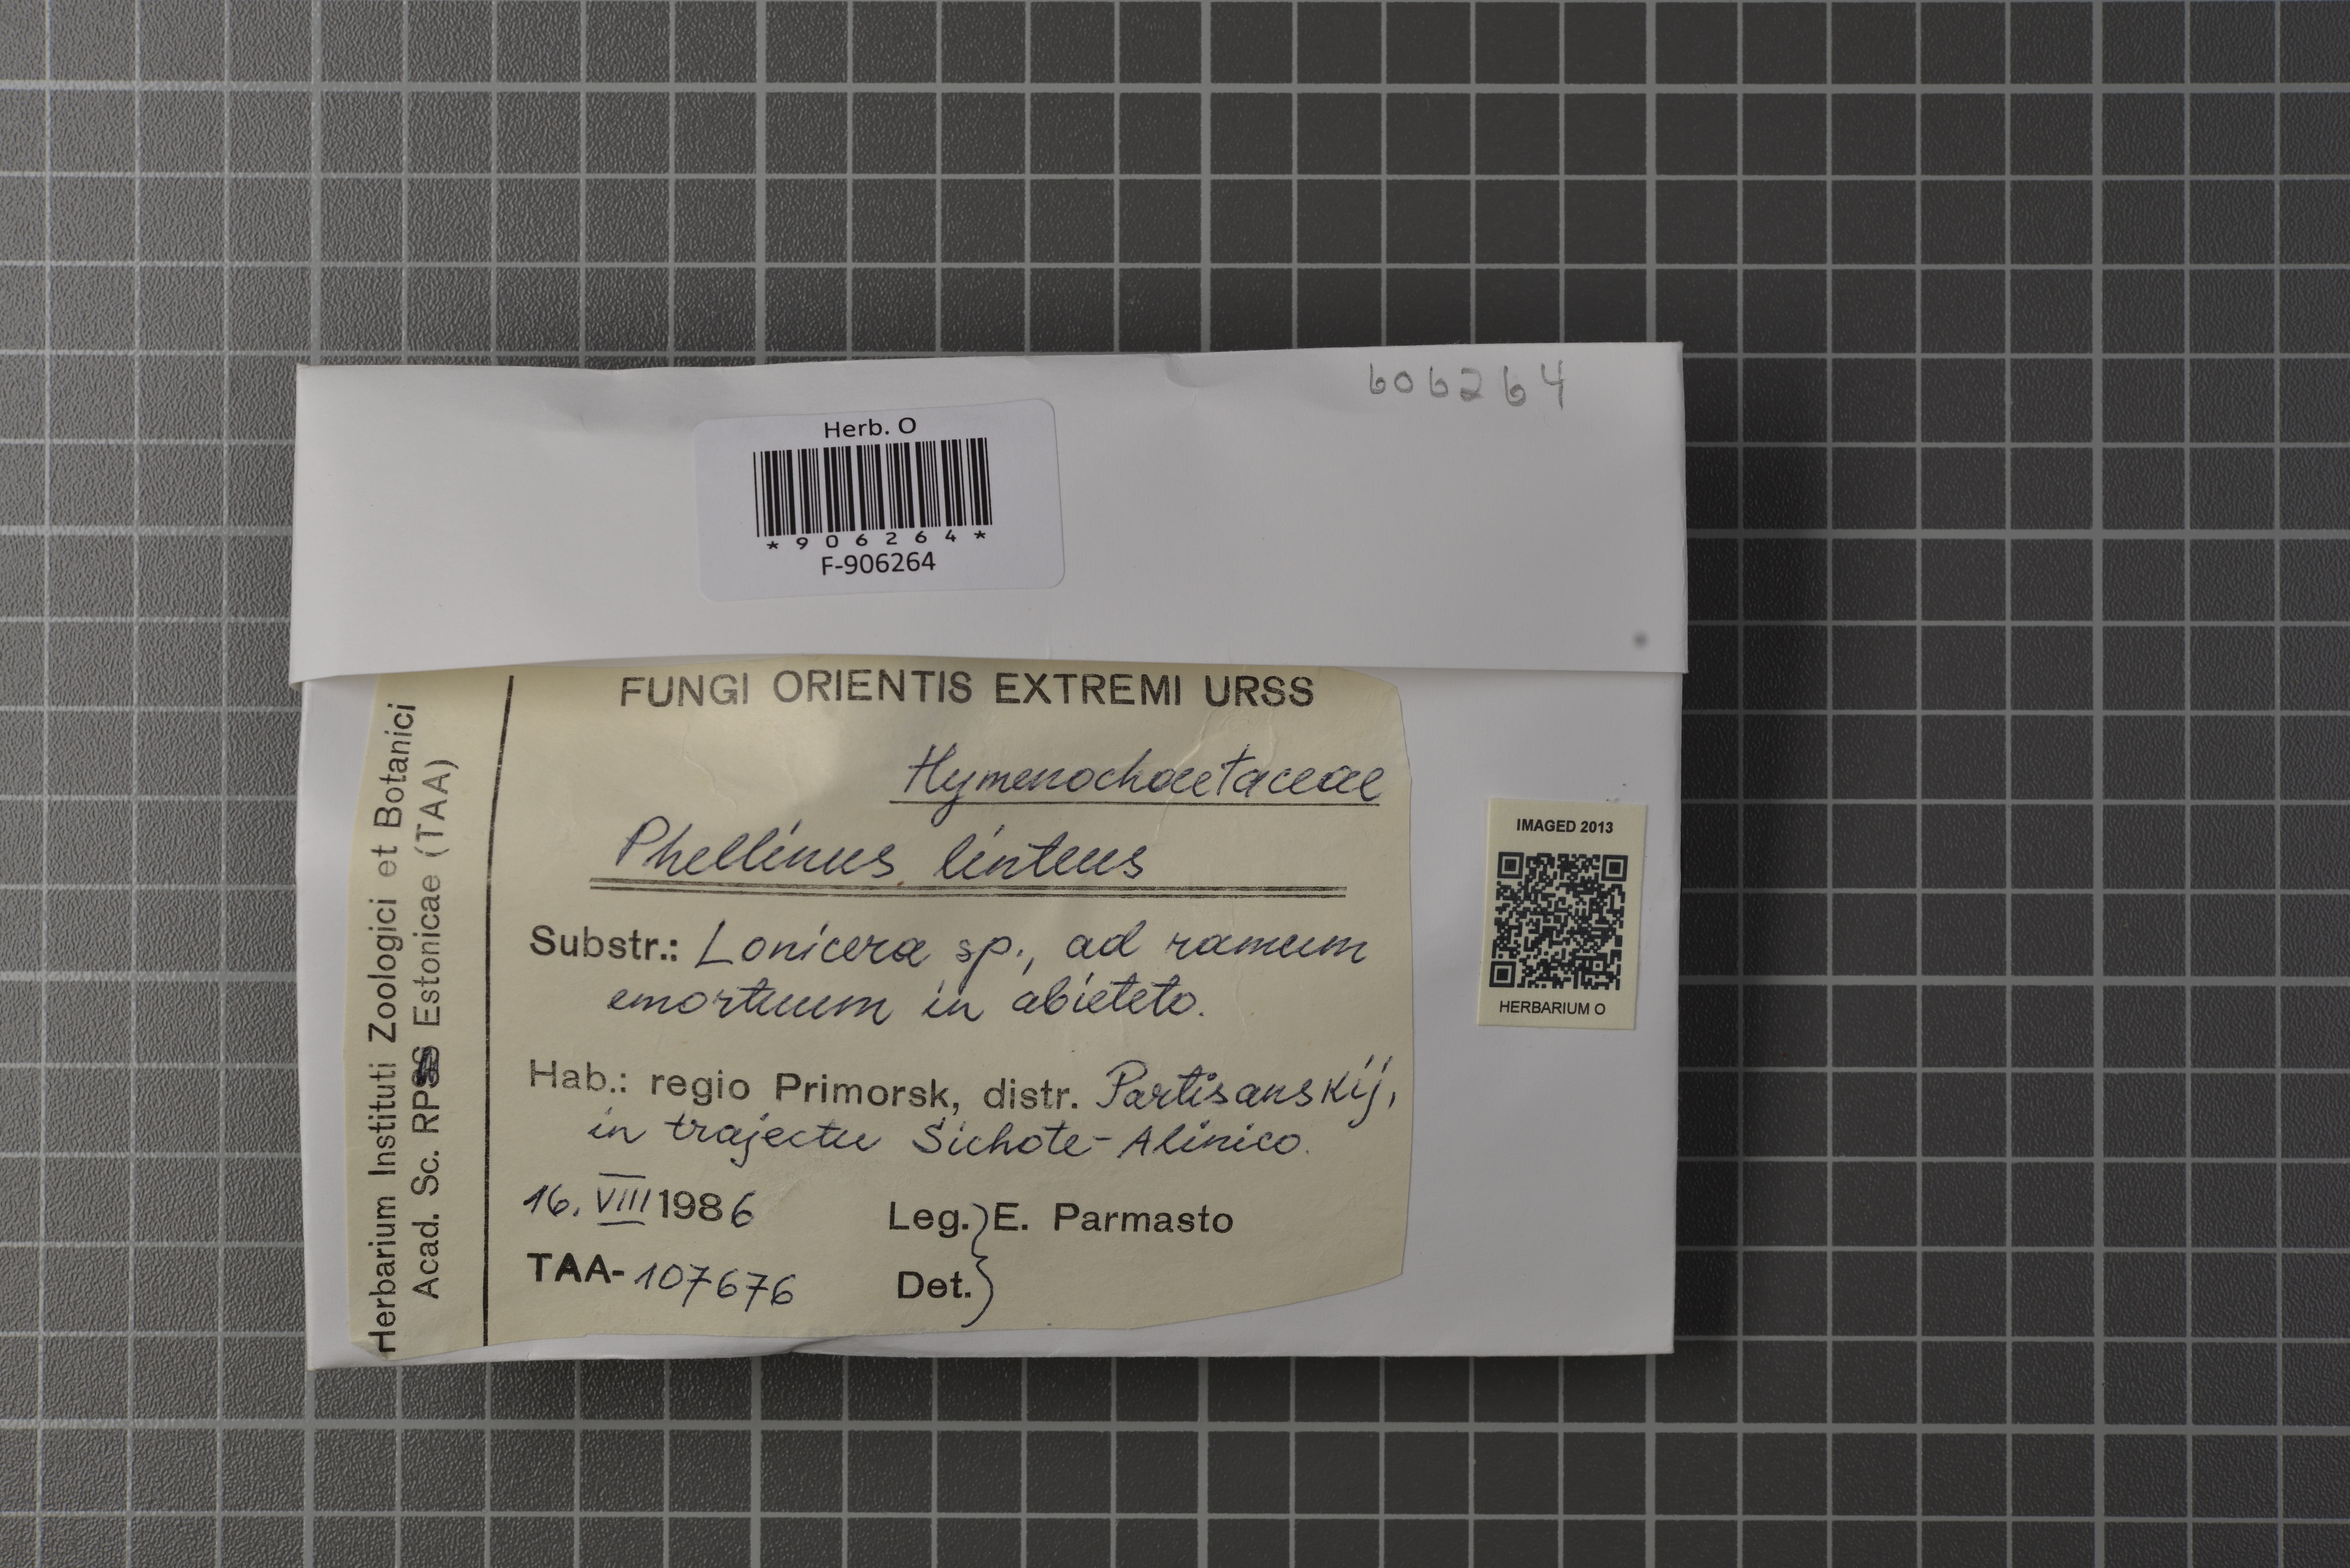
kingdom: Fungi
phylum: Basidiomycota
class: Agaricomycetes
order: Hymenochaetales
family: Hymenochaetaceae
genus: Tropicoporus
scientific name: Tropicoporus linteus
